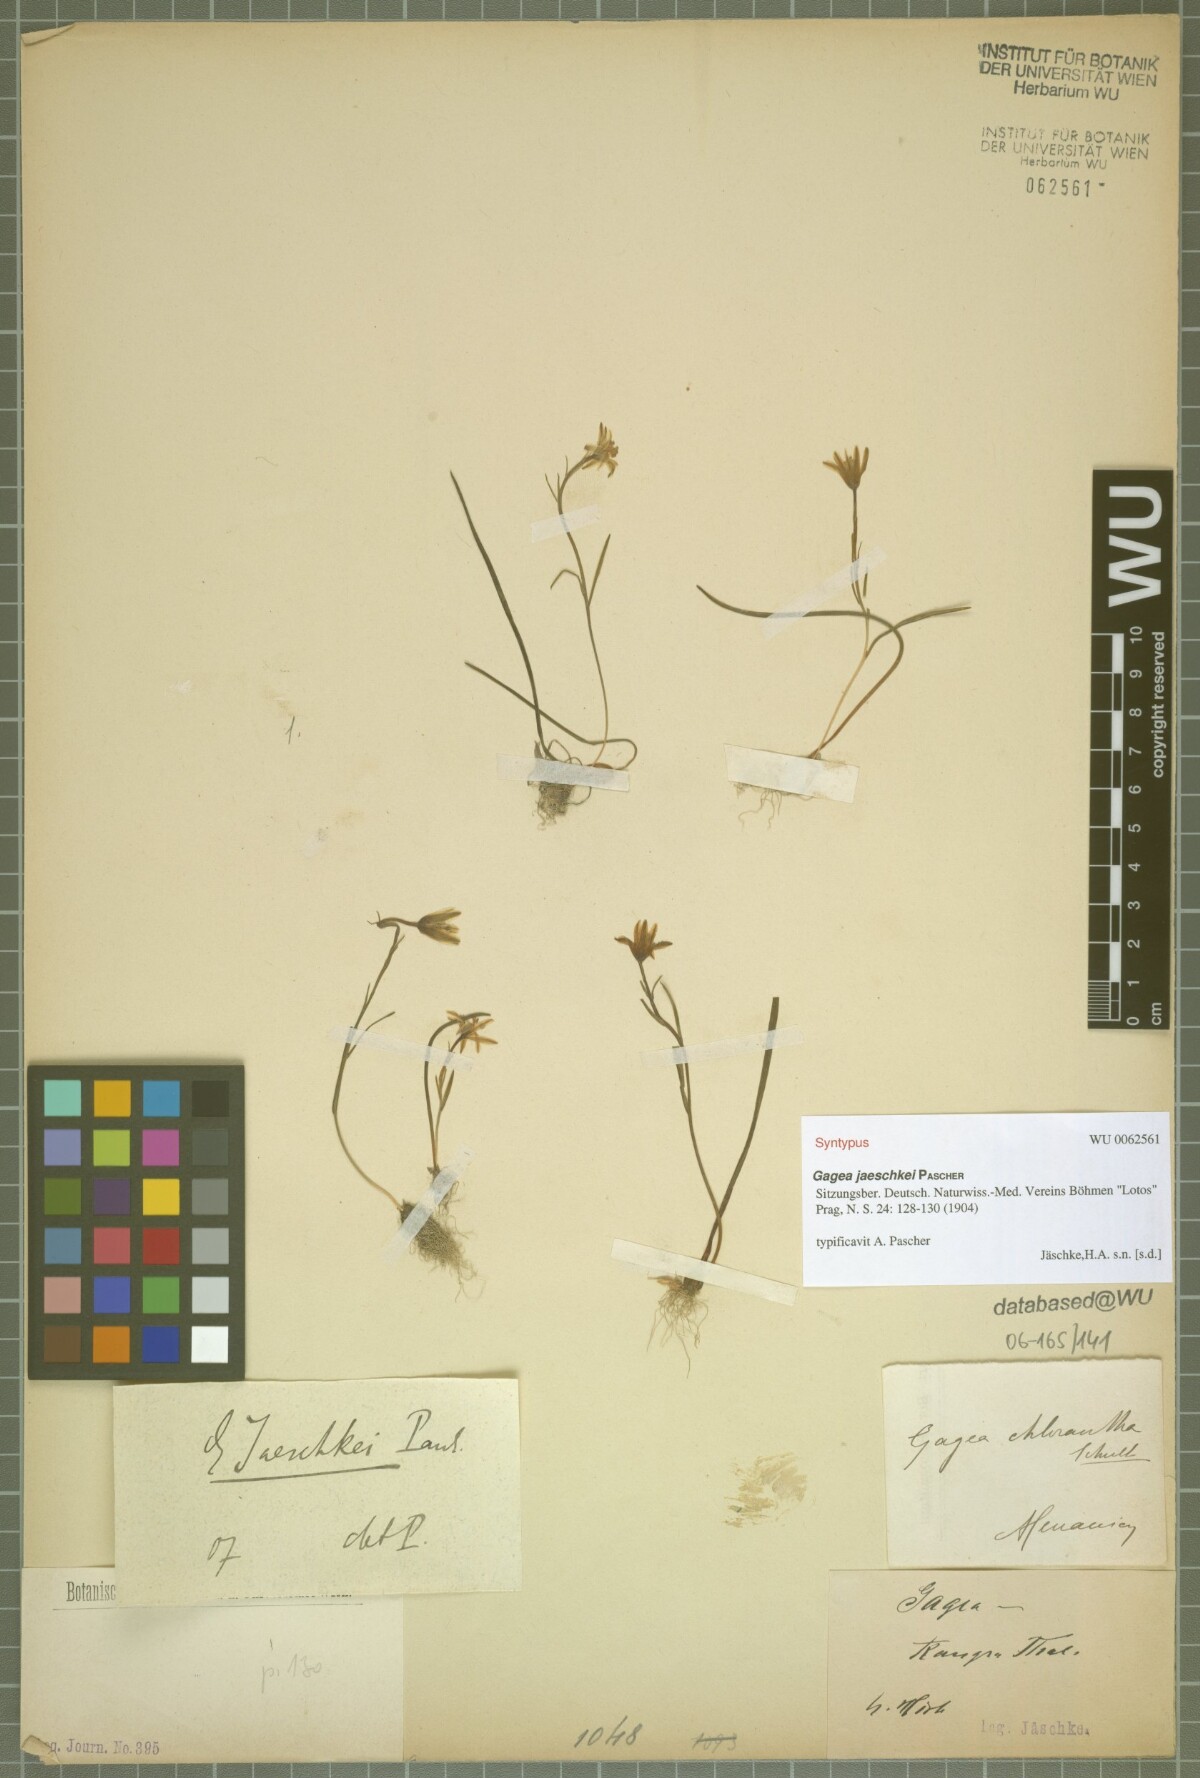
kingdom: Plantae
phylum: Tracheophyta
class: Liliopsida
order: Liliales
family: Liliaceae
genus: Gagea
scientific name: Gagea jaeschkei
